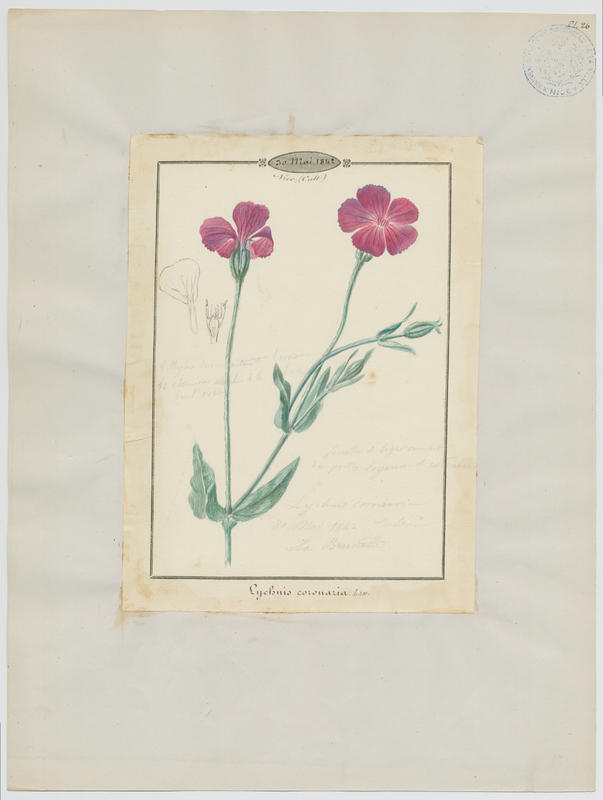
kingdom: Plantae
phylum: Tracheophyta
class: Magnoliopsida
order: Caryophyllales
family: Caryophyllaceae
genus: Silene
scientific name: Silene coronaria
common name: Rose campion
